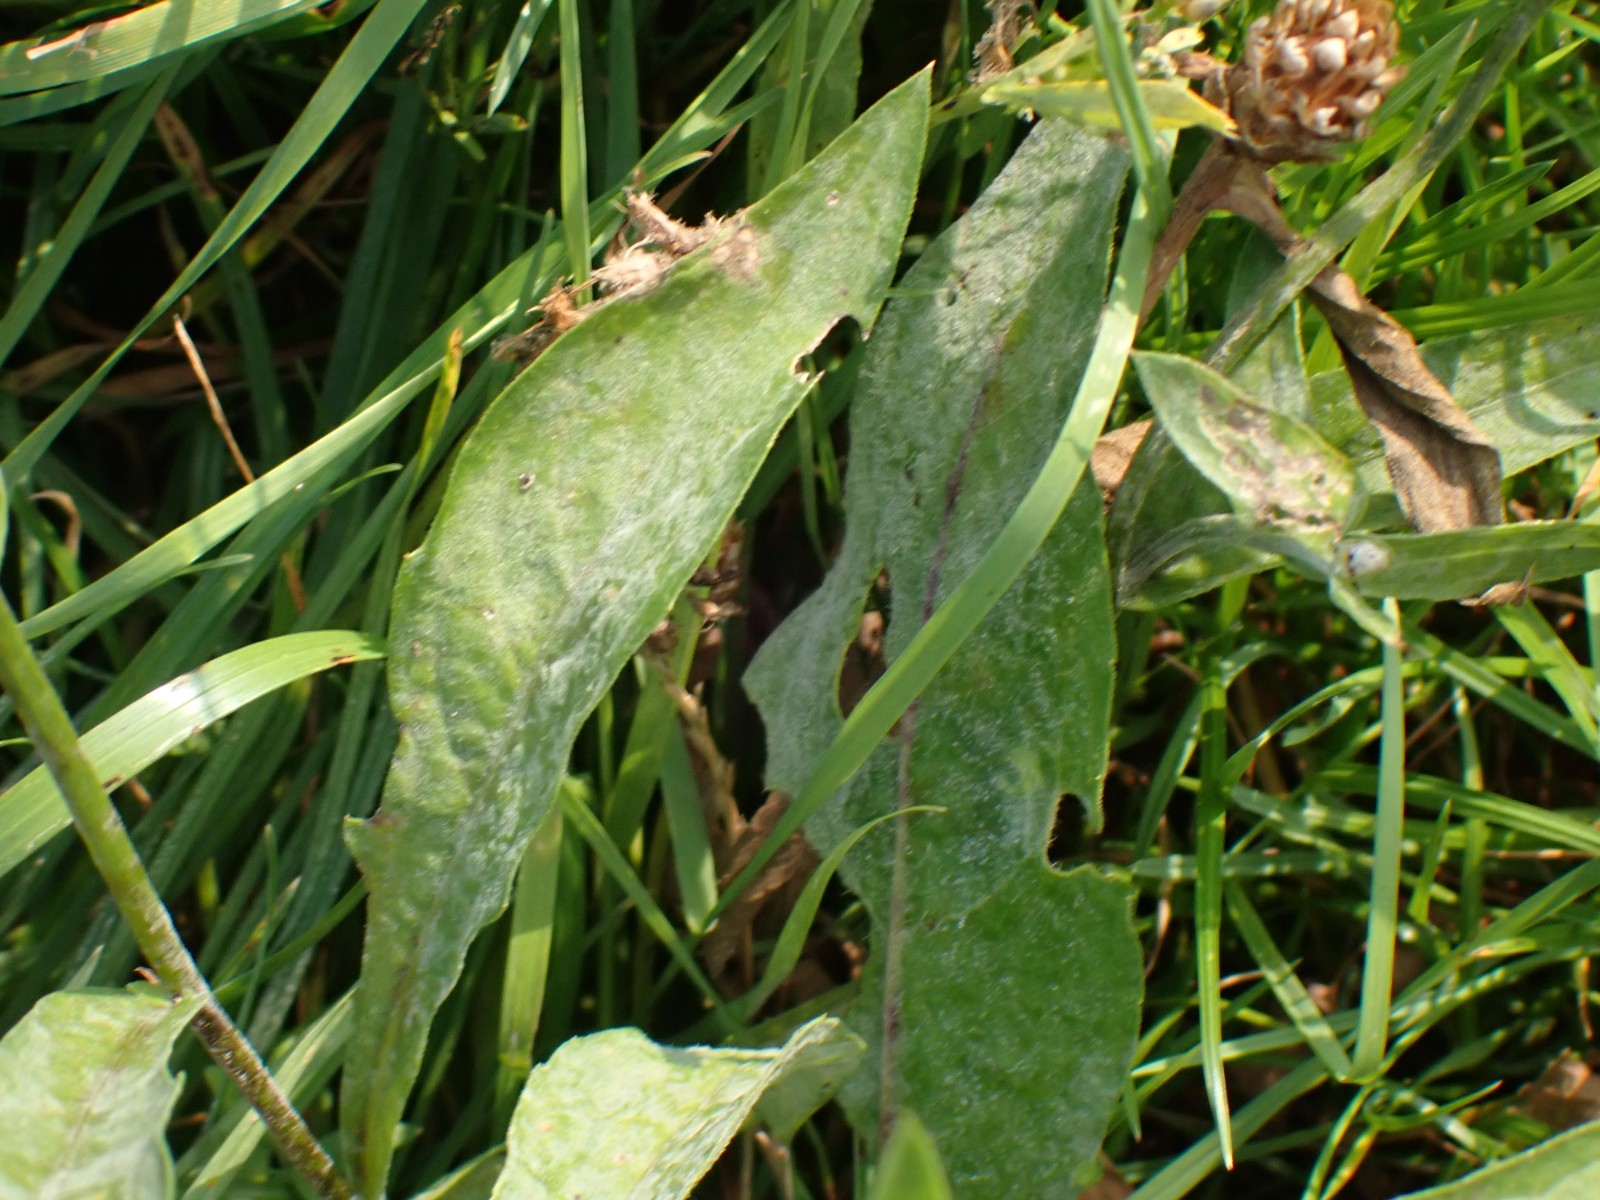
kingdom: Fungi
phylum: Ascomycota
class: Leotiomycetes
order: Helotiales
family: Erysiphaceae
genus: Golovinomyces
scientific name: Golovinomyces montagnei
